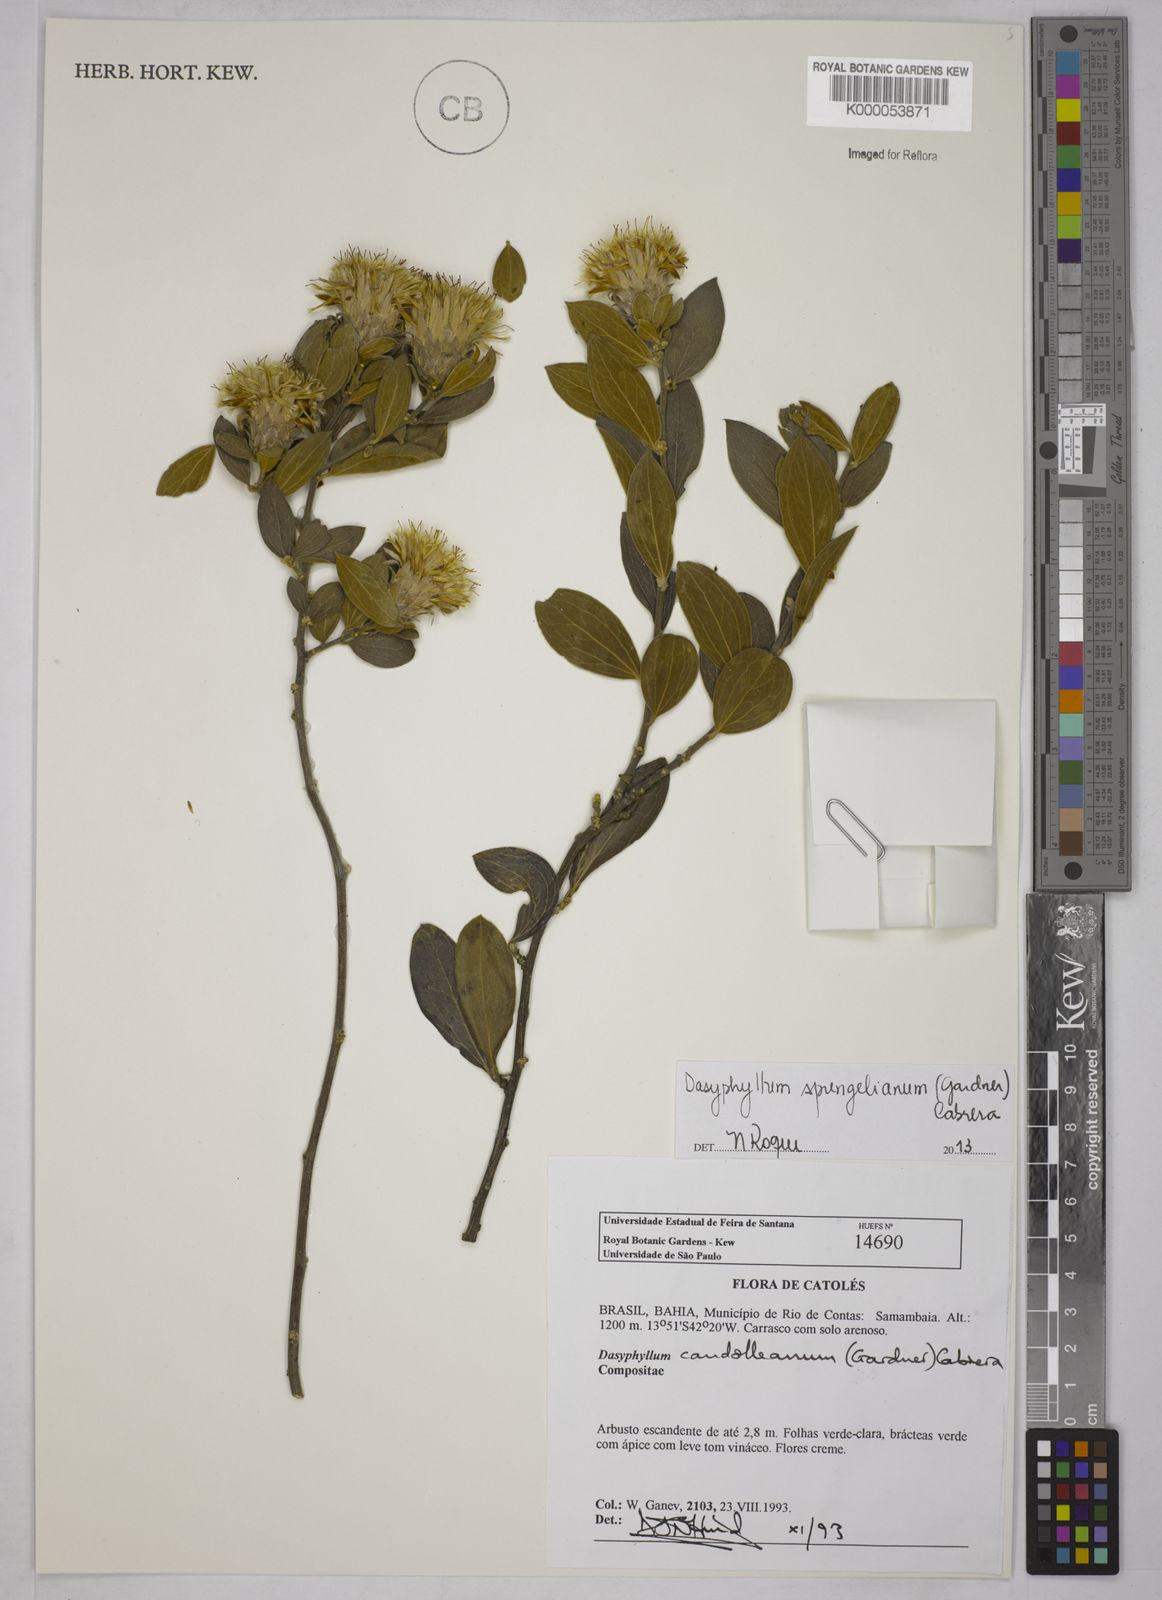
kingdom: Plantae
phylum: Tracheophyta
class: Magnoliopsida
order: Asterales
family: Asteraceae
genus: Dasyphyllum
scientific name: Dasyphyllum candolleanum
